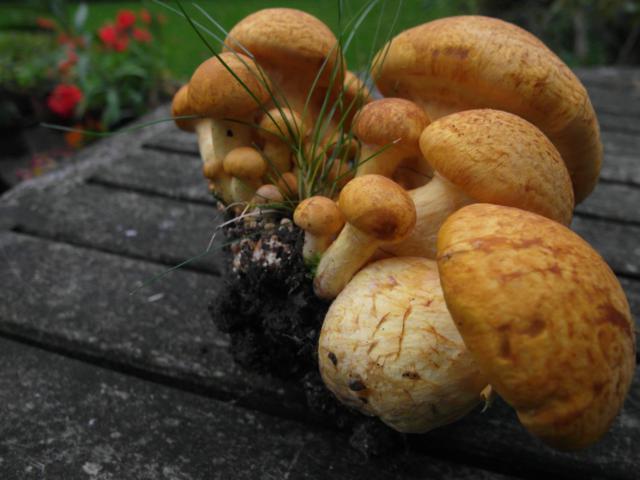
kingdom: Fungi
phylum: Basidiomycota
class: Agaricomycetes
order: Agaricales
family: Hymenogastraceae
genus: Gymnopilus
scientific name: Gymnopilus spectabilis
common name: fibret flammehat
